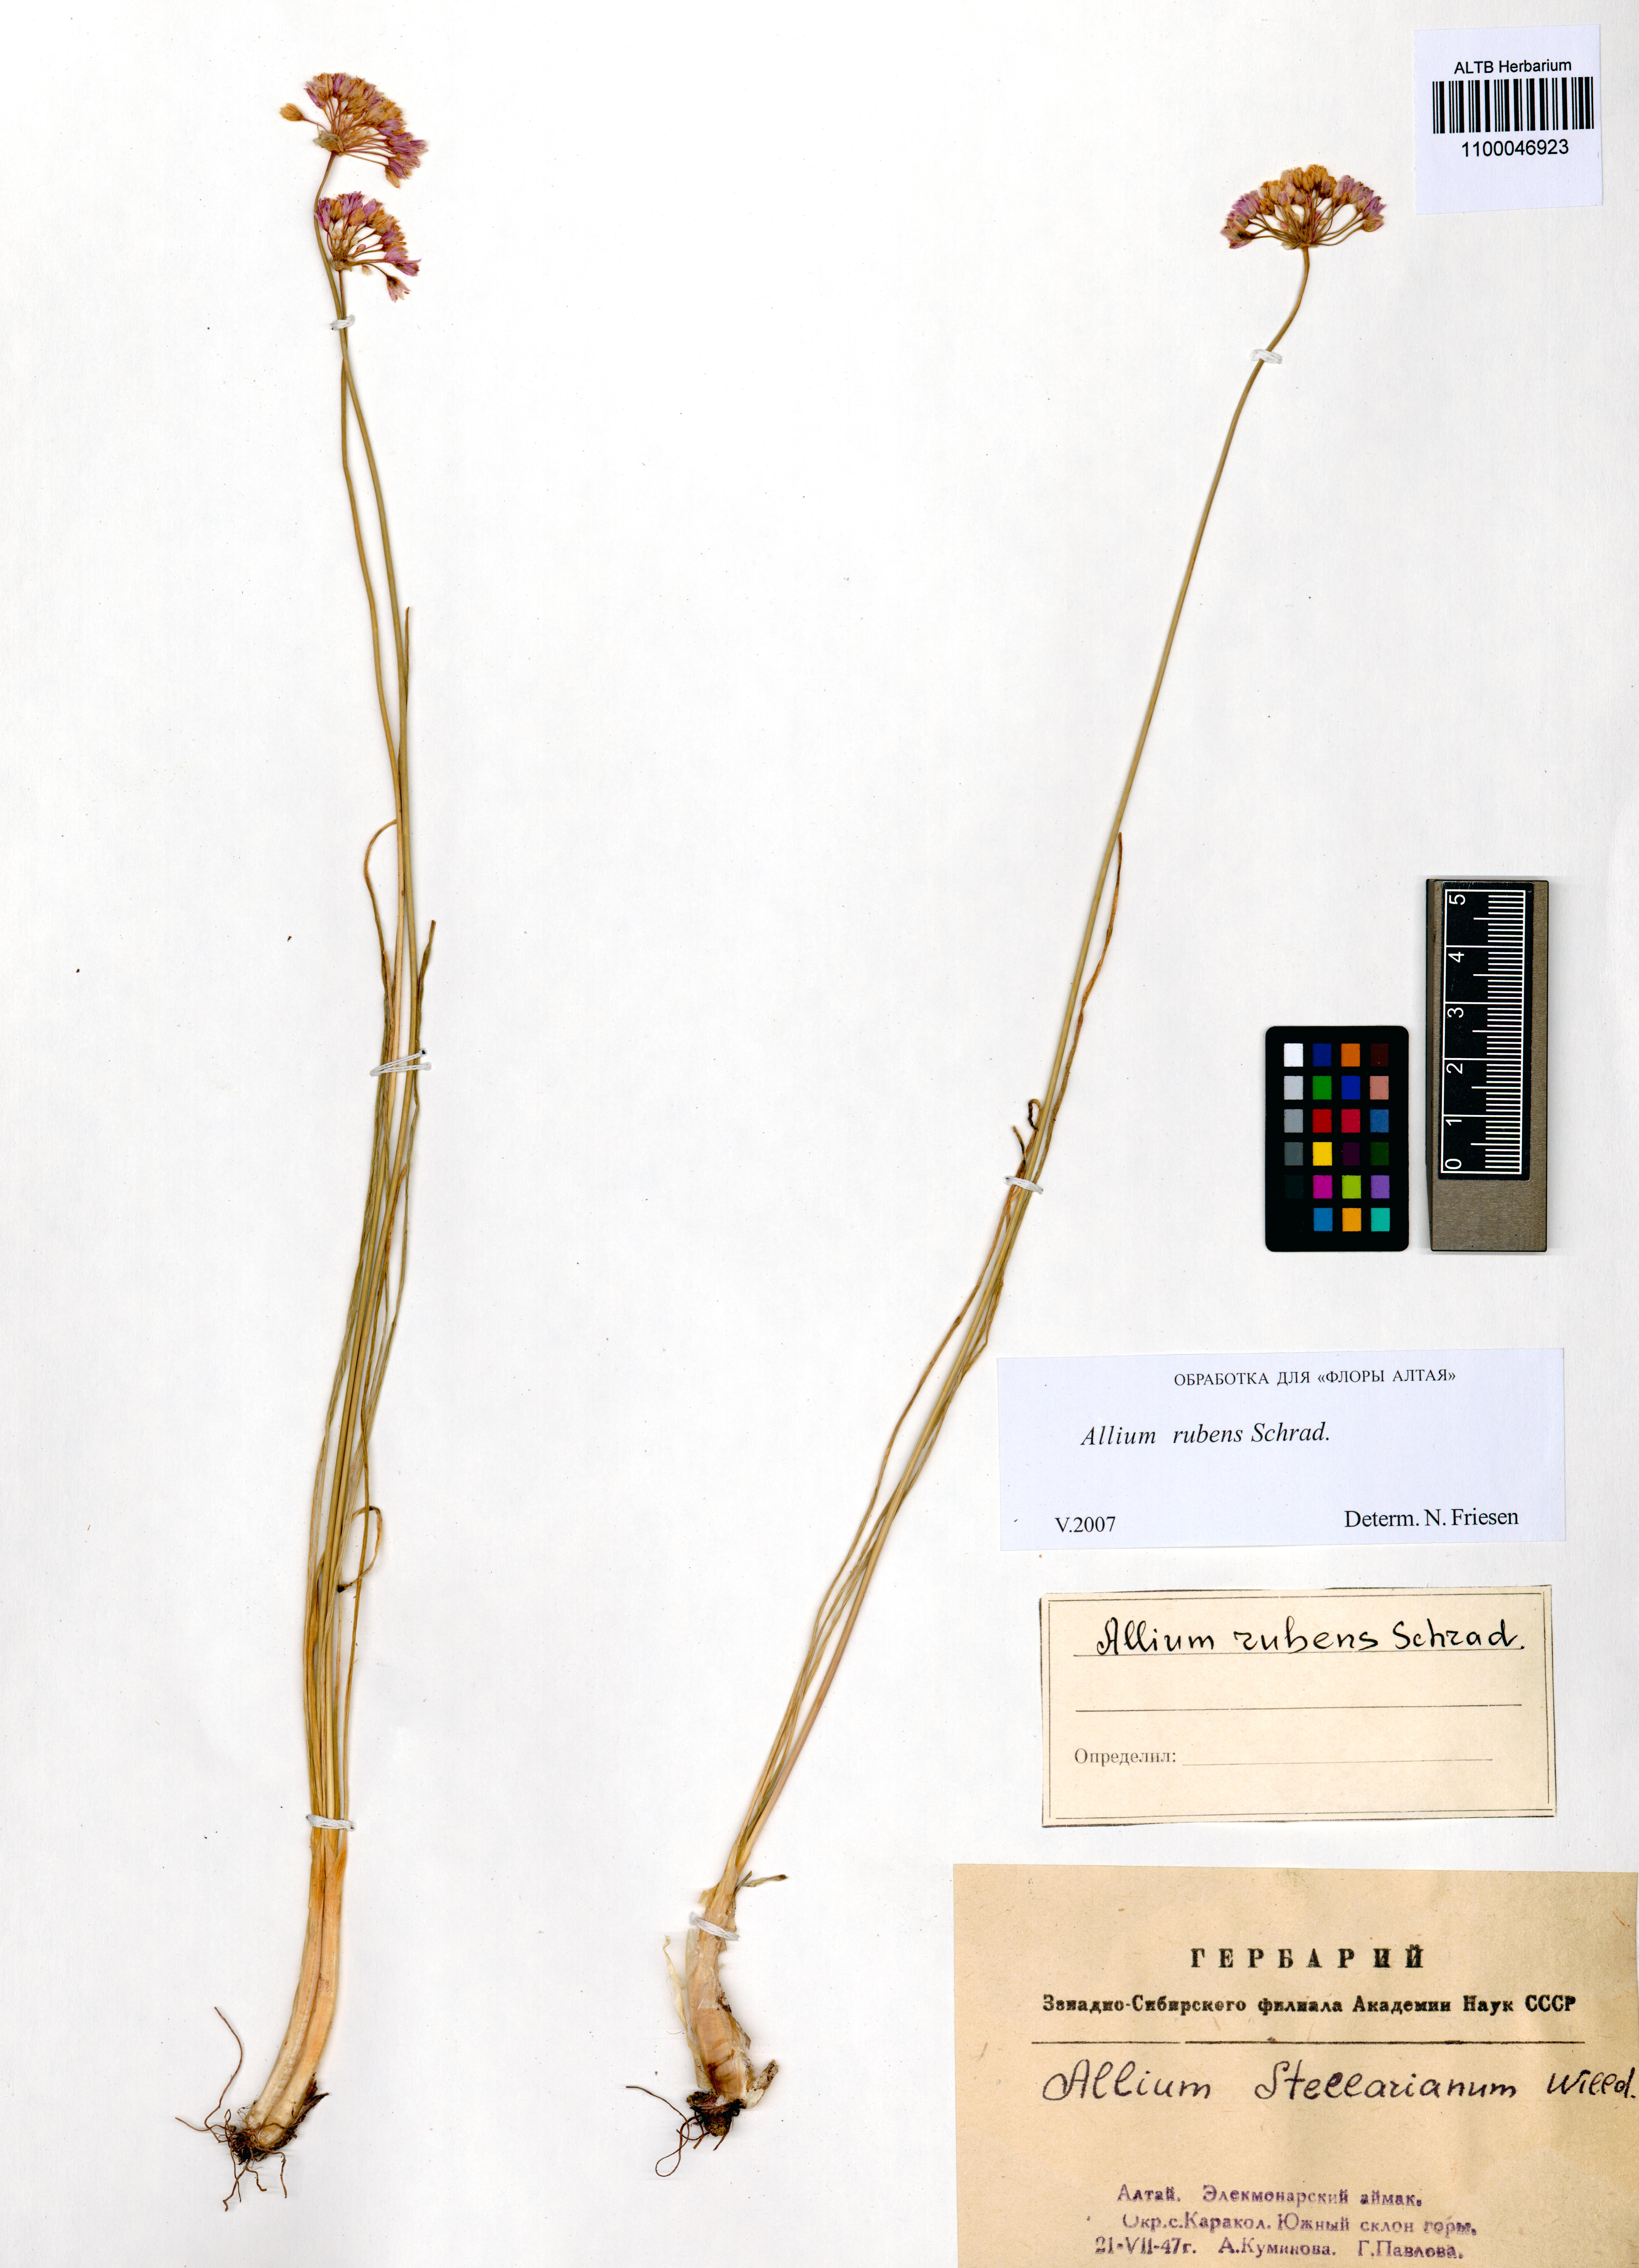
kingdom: Plantae
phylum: Tracheophyta
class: Liliopsida
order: Asparagales
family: Amaryllidaceae
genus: Allium
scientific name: Allium rubens
